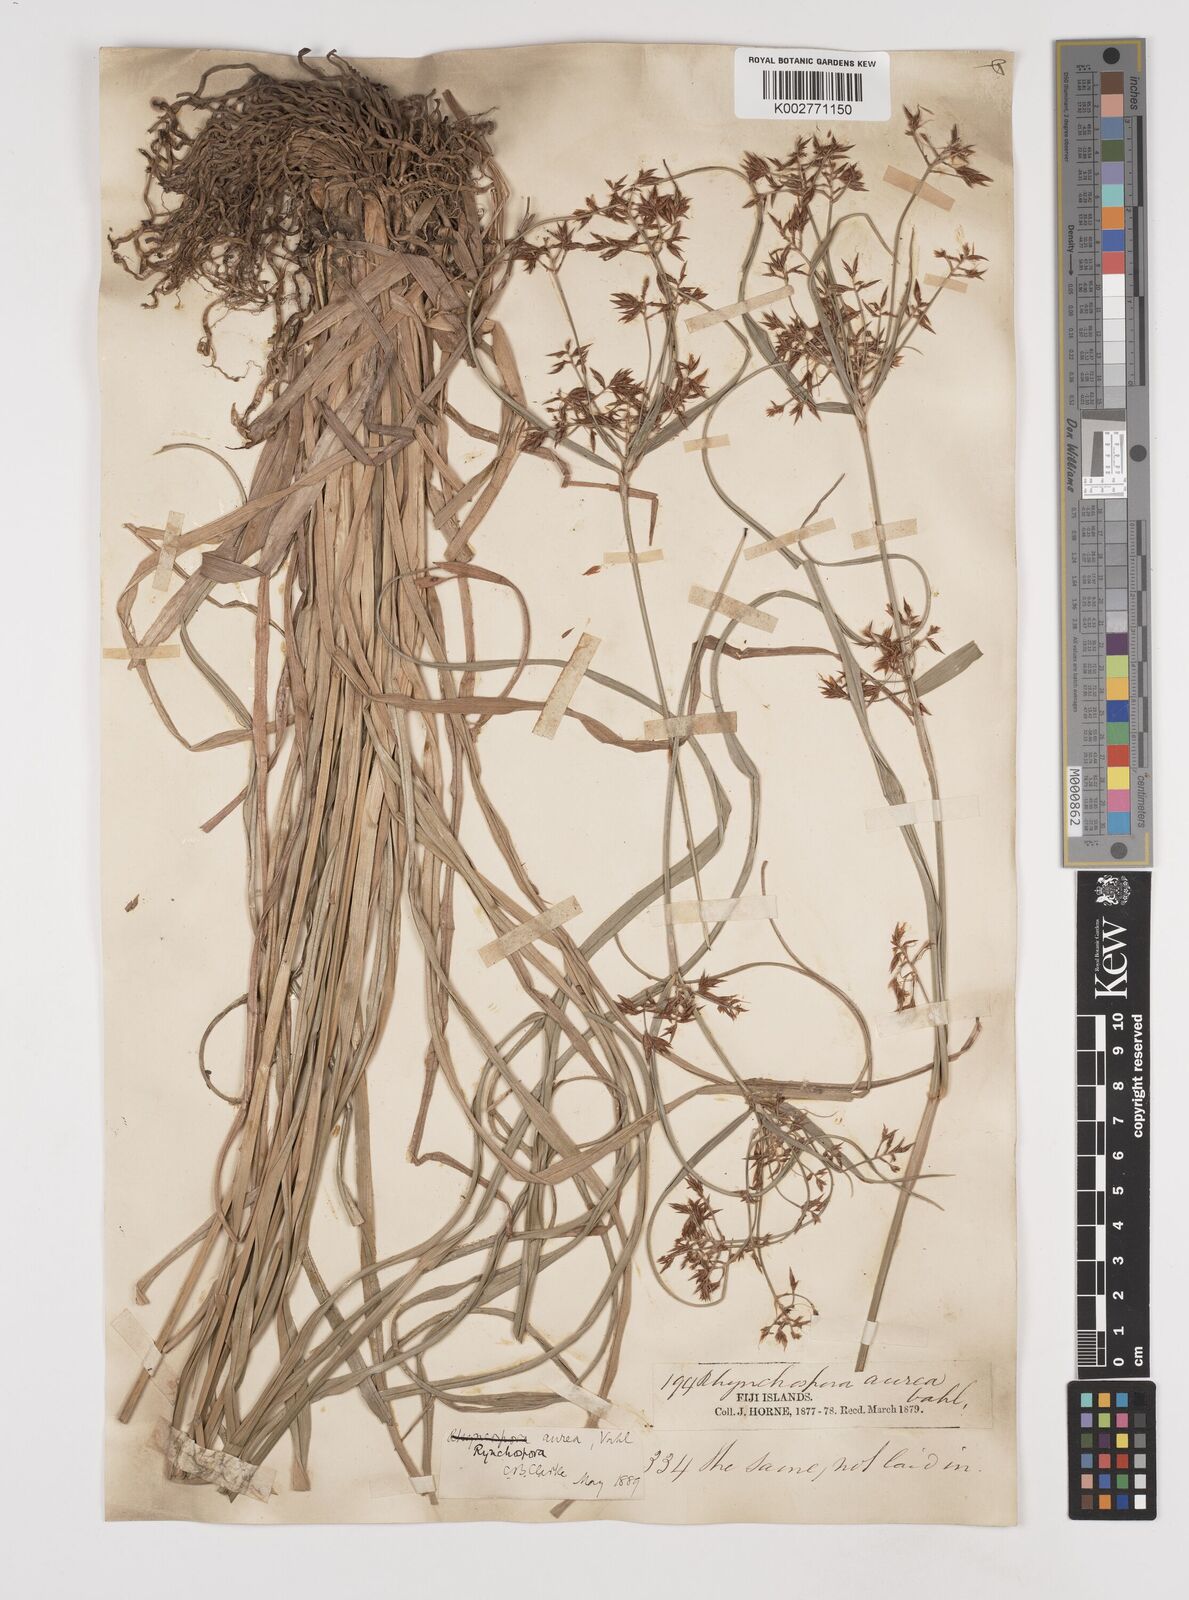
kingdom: Plantae
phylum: Tracheophyta
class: Liliopsida
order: Poales
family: Cyperaceae
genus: Rhynchospora
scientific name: Rhynchospora
